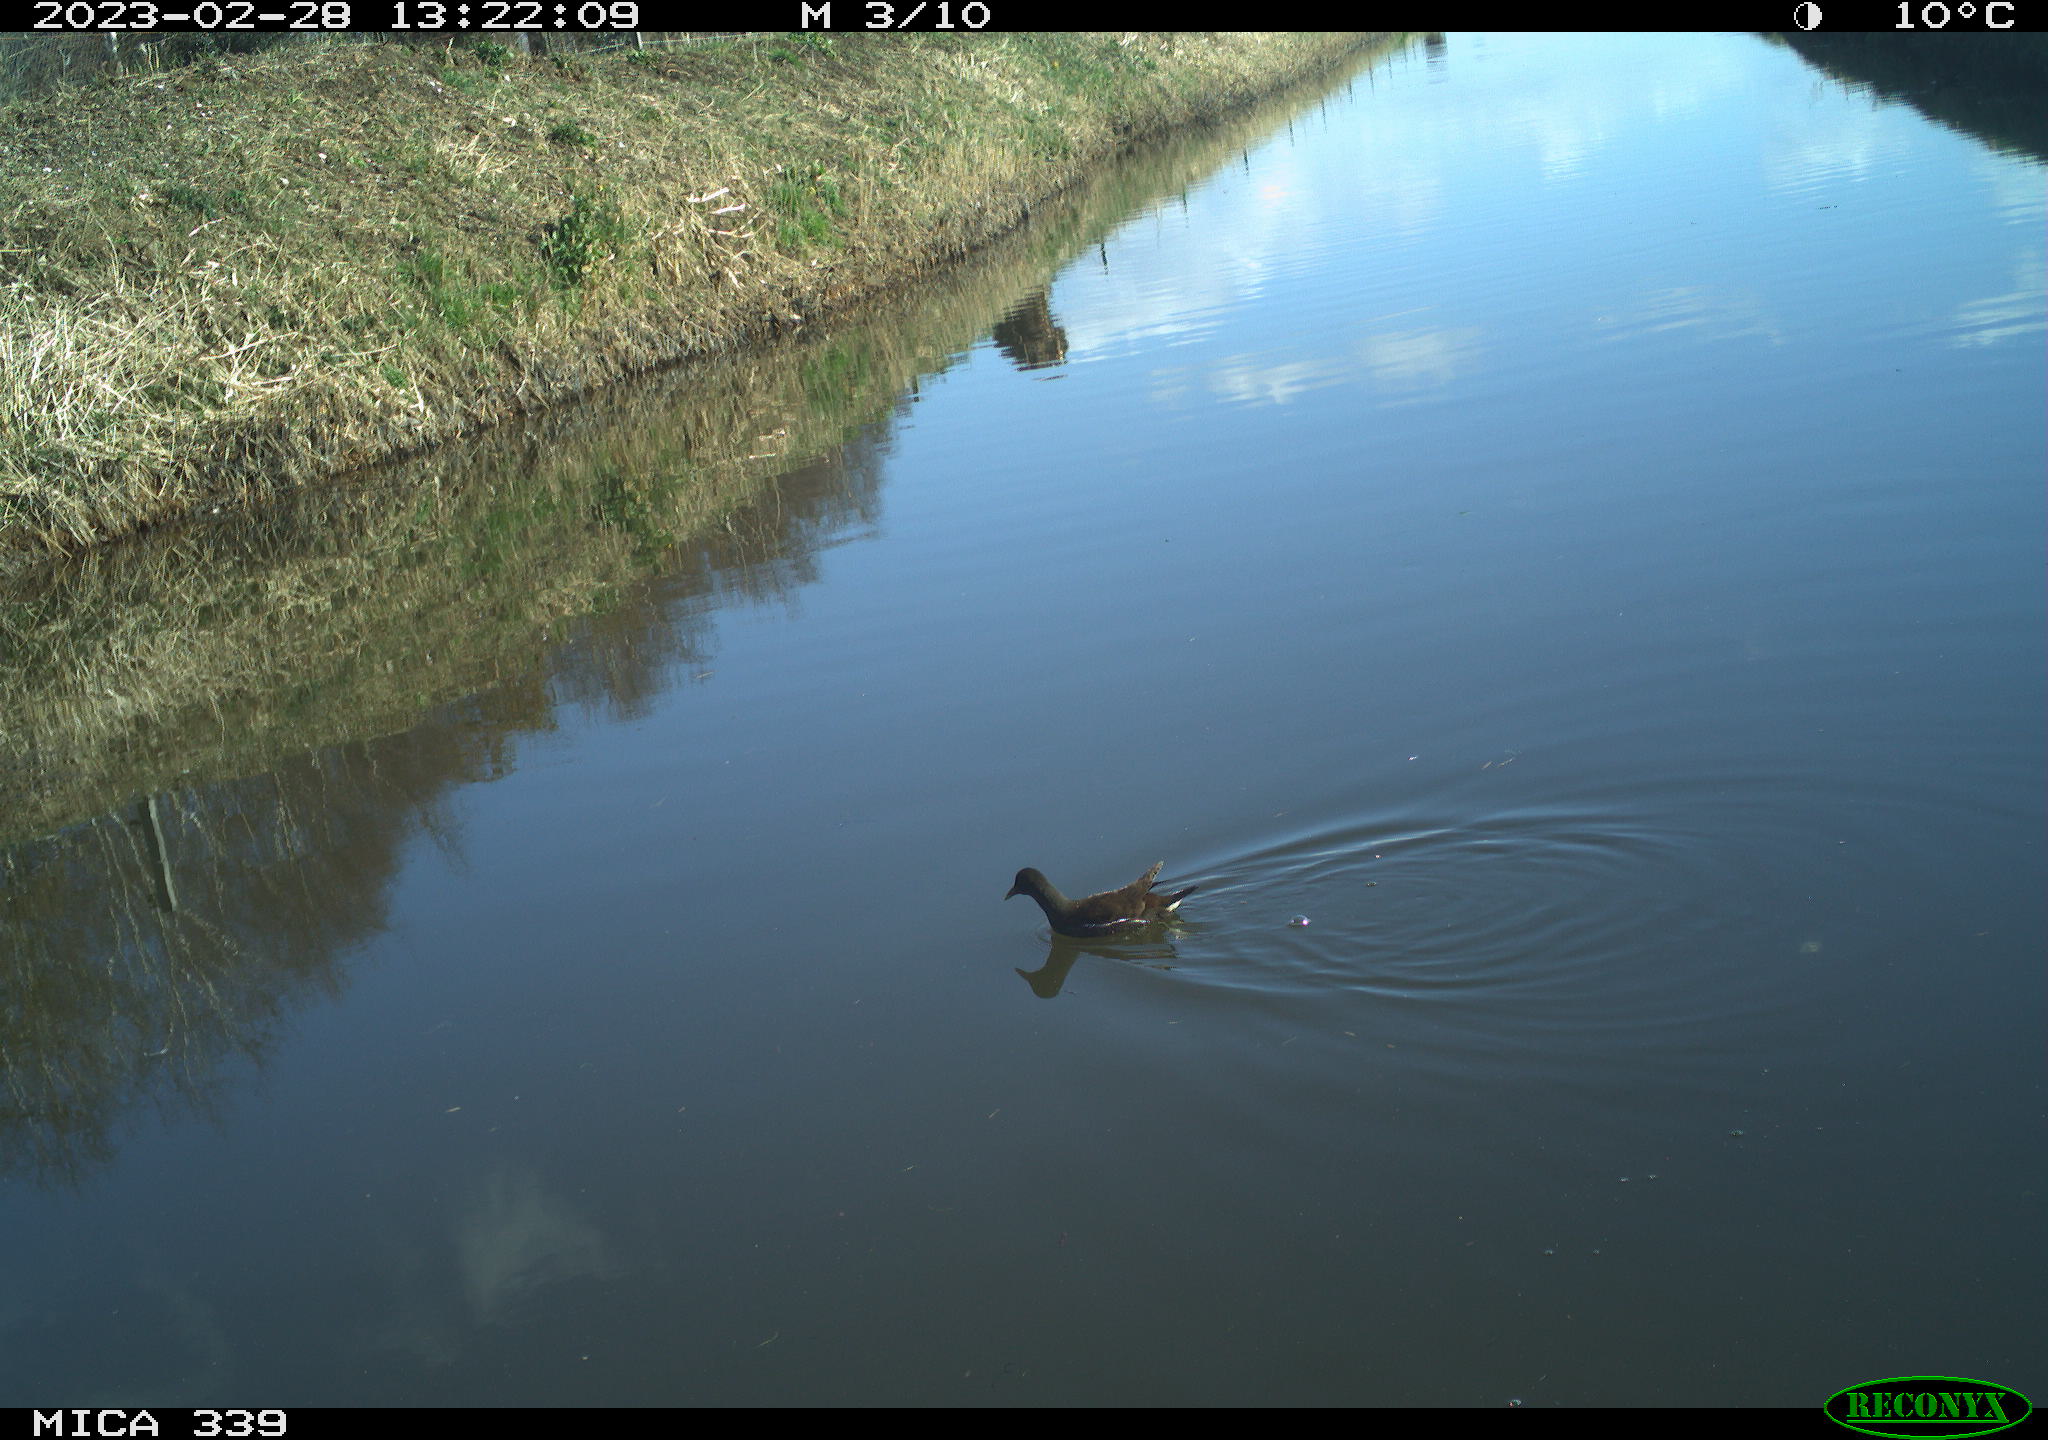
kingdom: Animalia
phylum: Chordata
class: Aves
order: Gruiformes
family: Rallidae
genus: Gallinula
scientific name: Gallinula chloropus
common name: Common moorhen
